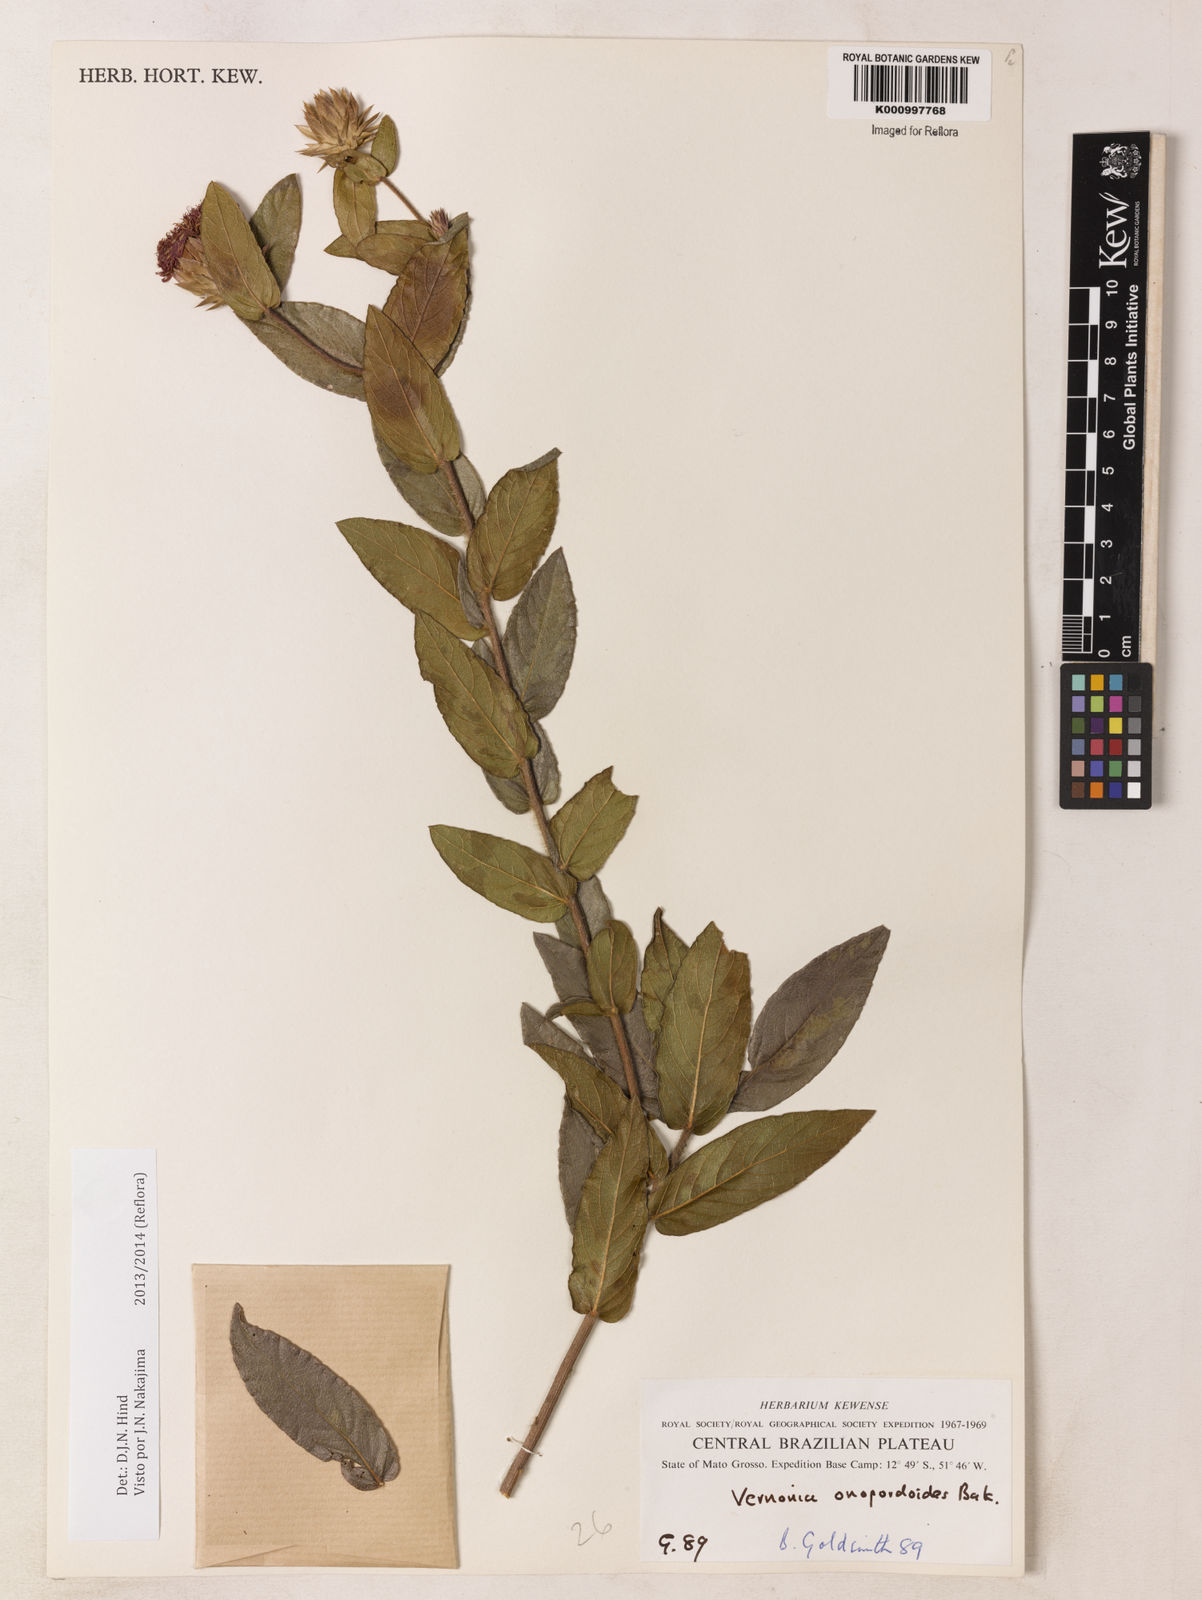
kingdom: Plantae
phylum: Tracheophyta
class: Magnoliopsida
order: Asterales
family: Asteraceae
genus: Lessingianthus
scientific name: Lessingianthus onopordioides
